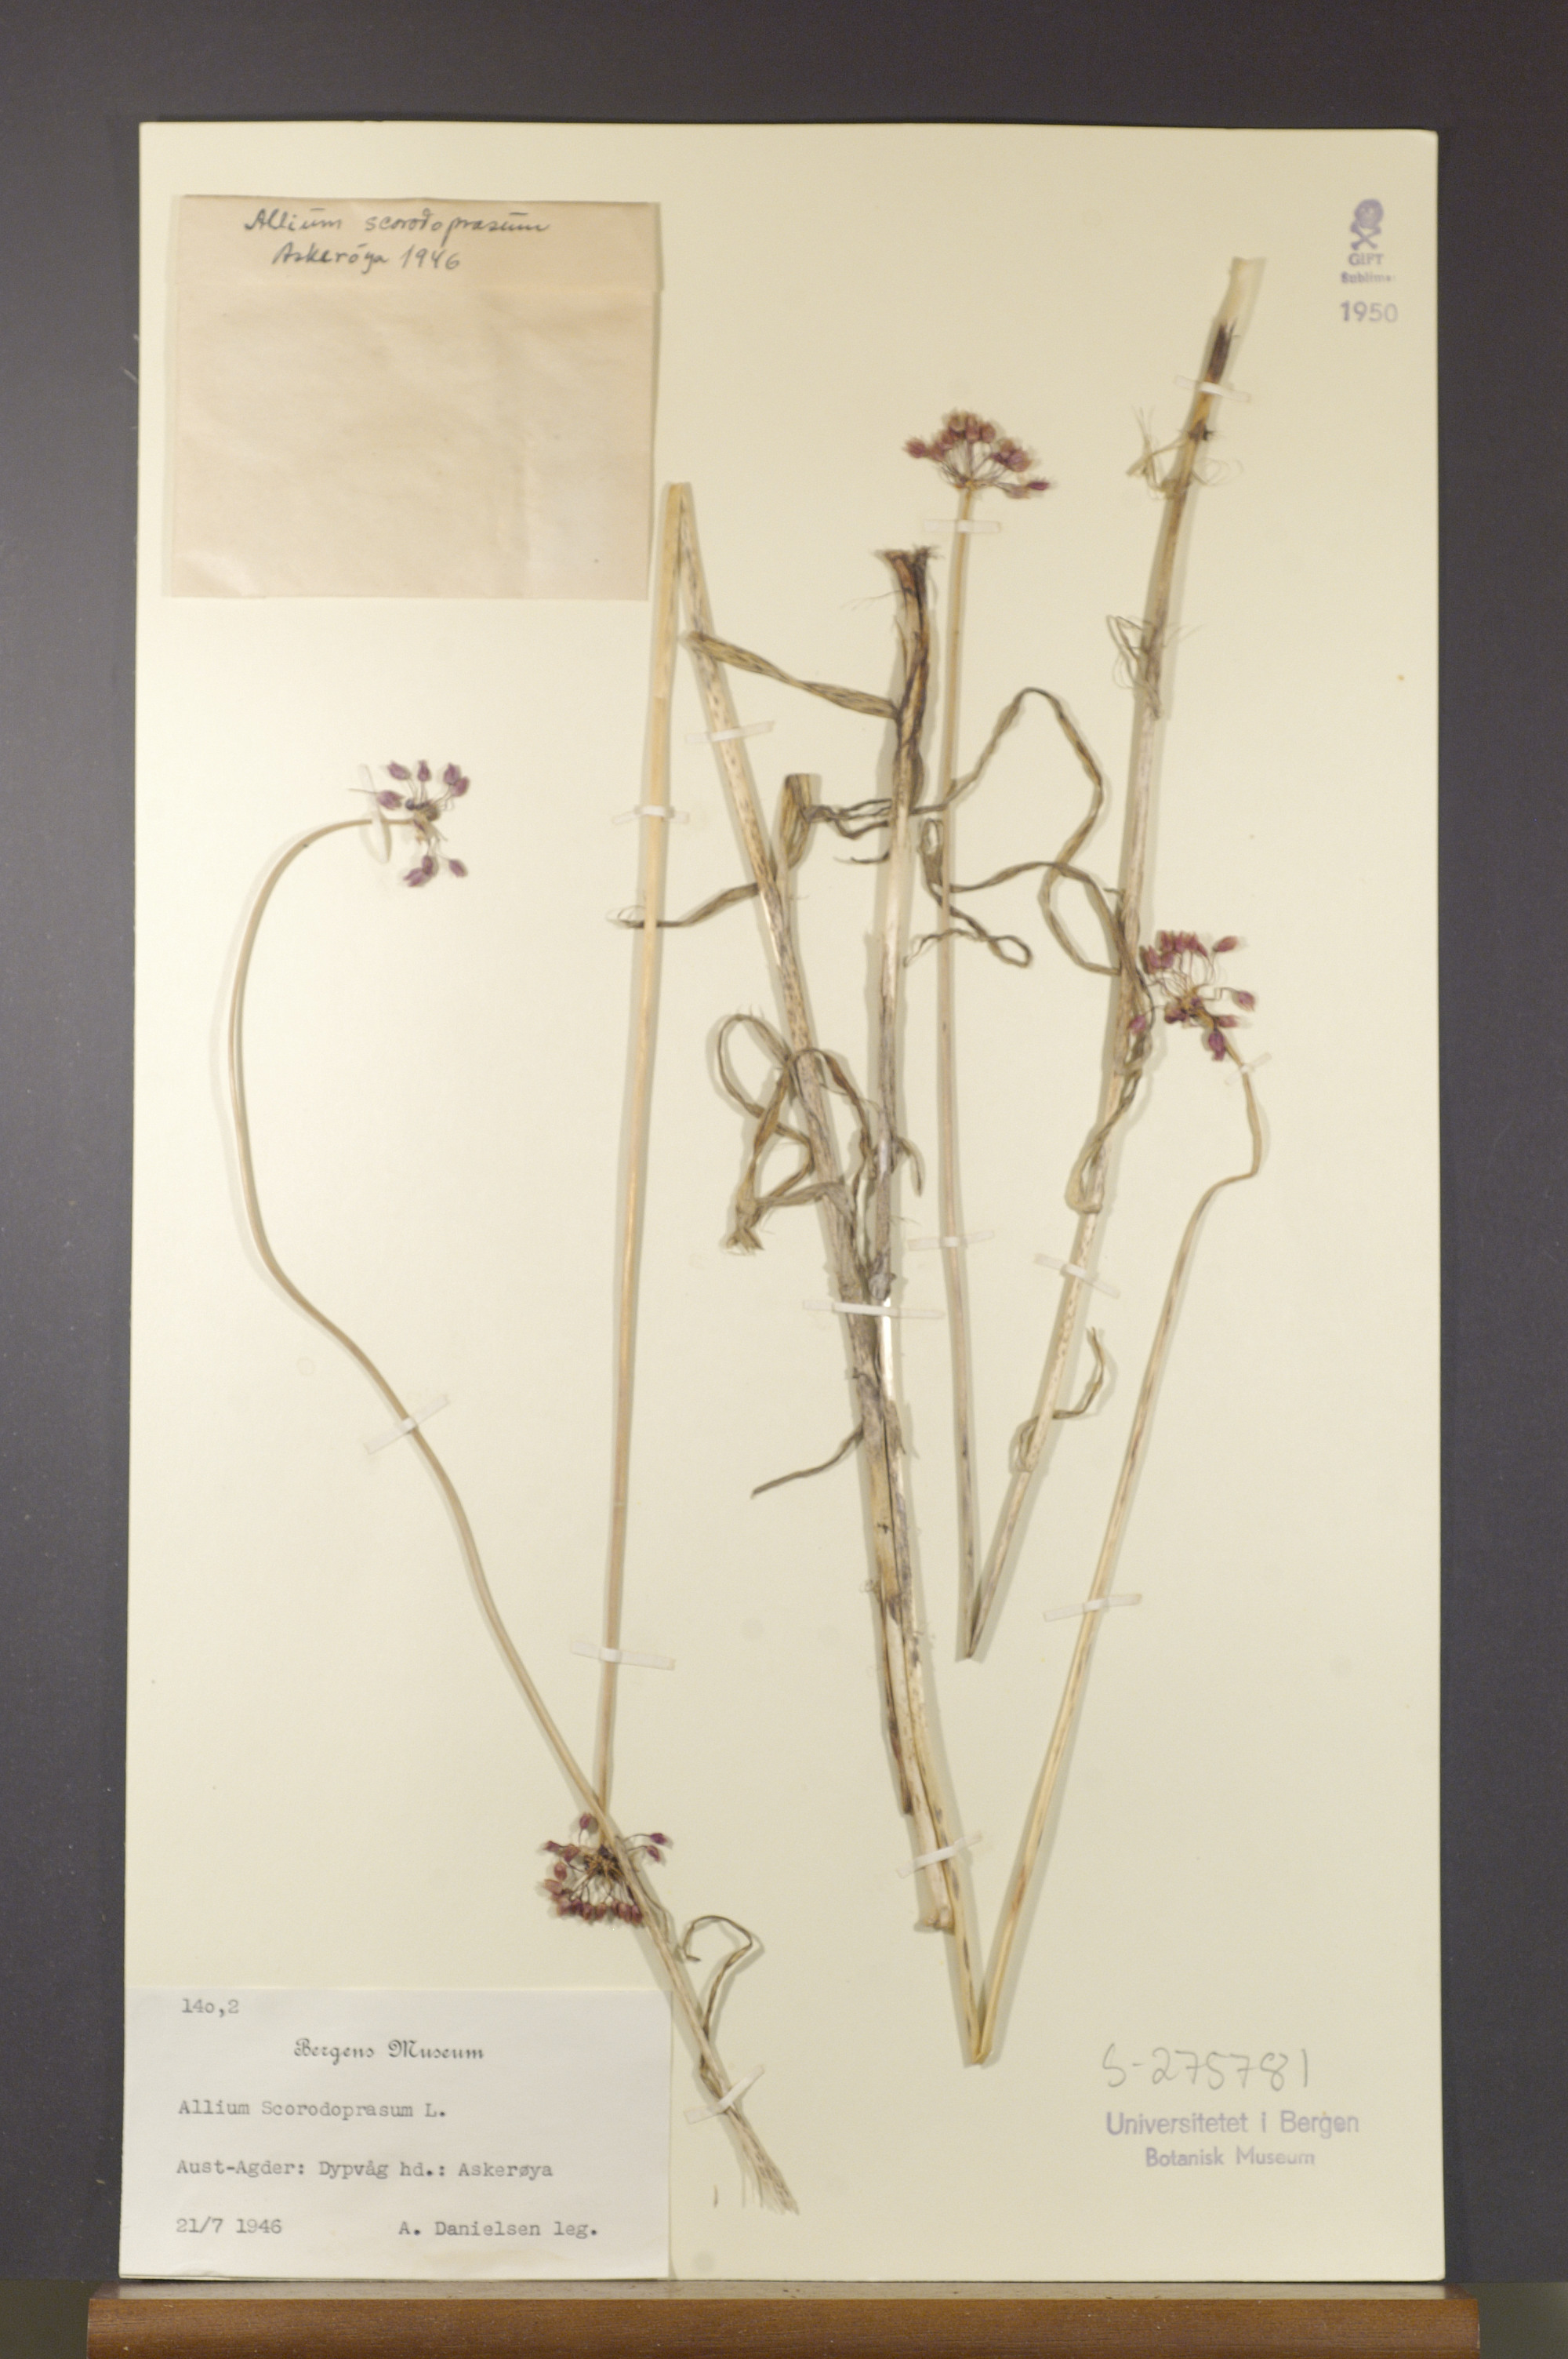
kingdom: Plantae
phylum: Tracheophyta
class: Liliopsida
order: Asparagales
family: Amaryllidaceae
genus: Allium
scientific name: Allium scorodoprasum
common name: Sand leek
